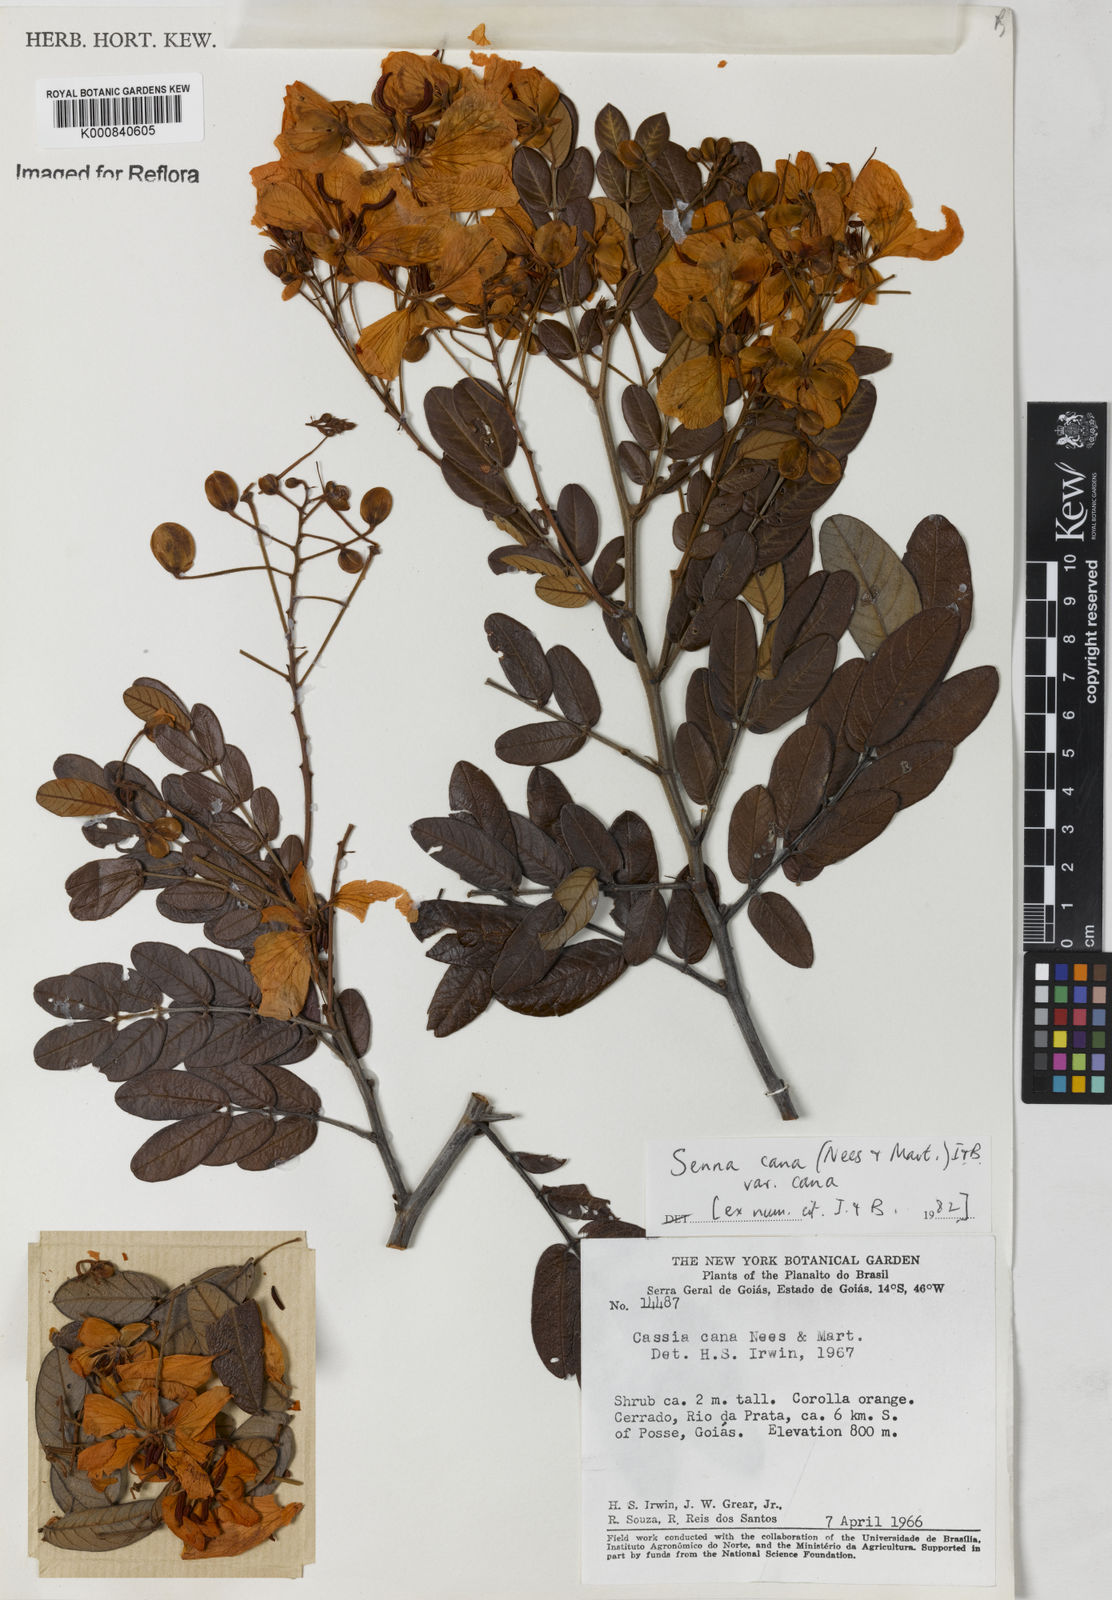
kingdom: Plantae
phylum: Tracheophyta
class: Magnoliopsida
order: Fabales
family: Fabaceae
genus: Senna
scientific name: Senna cana
